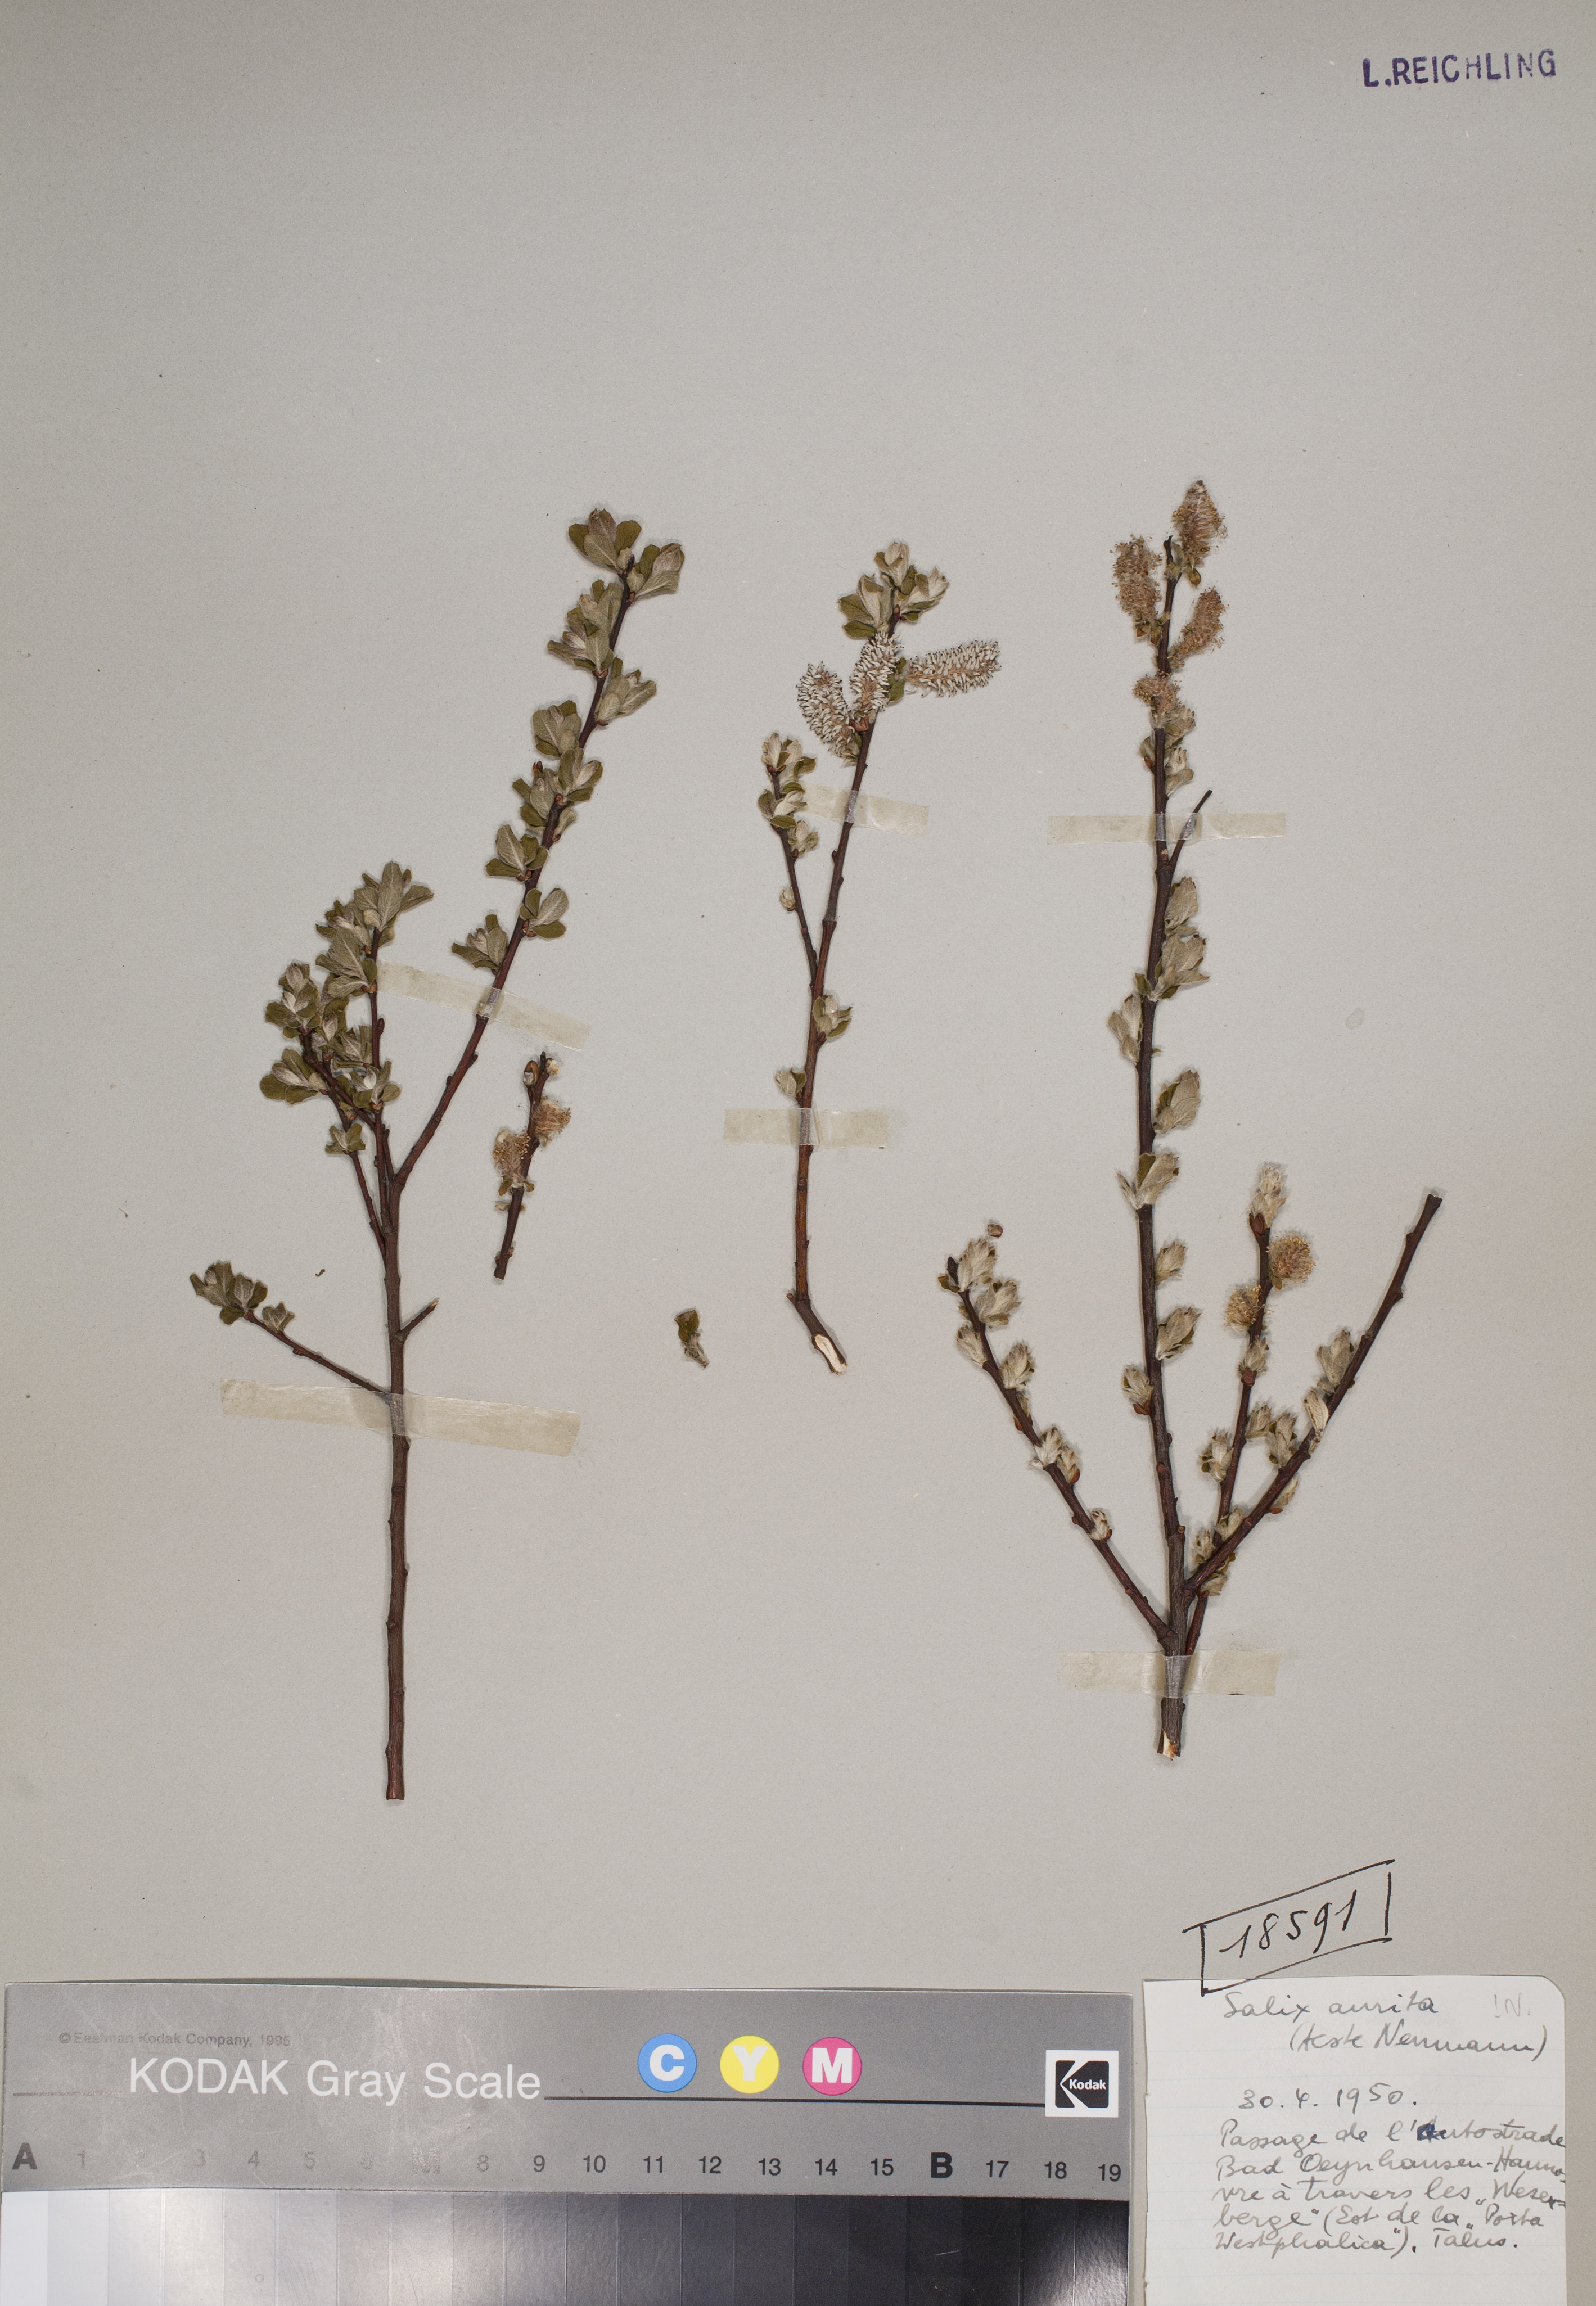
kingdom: Plantae
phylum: Tracheophyta
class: Magnoliopsida
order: Malpighiales
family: Salicaceae
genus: Salix
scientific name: Salix aurita
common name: Eared willow
